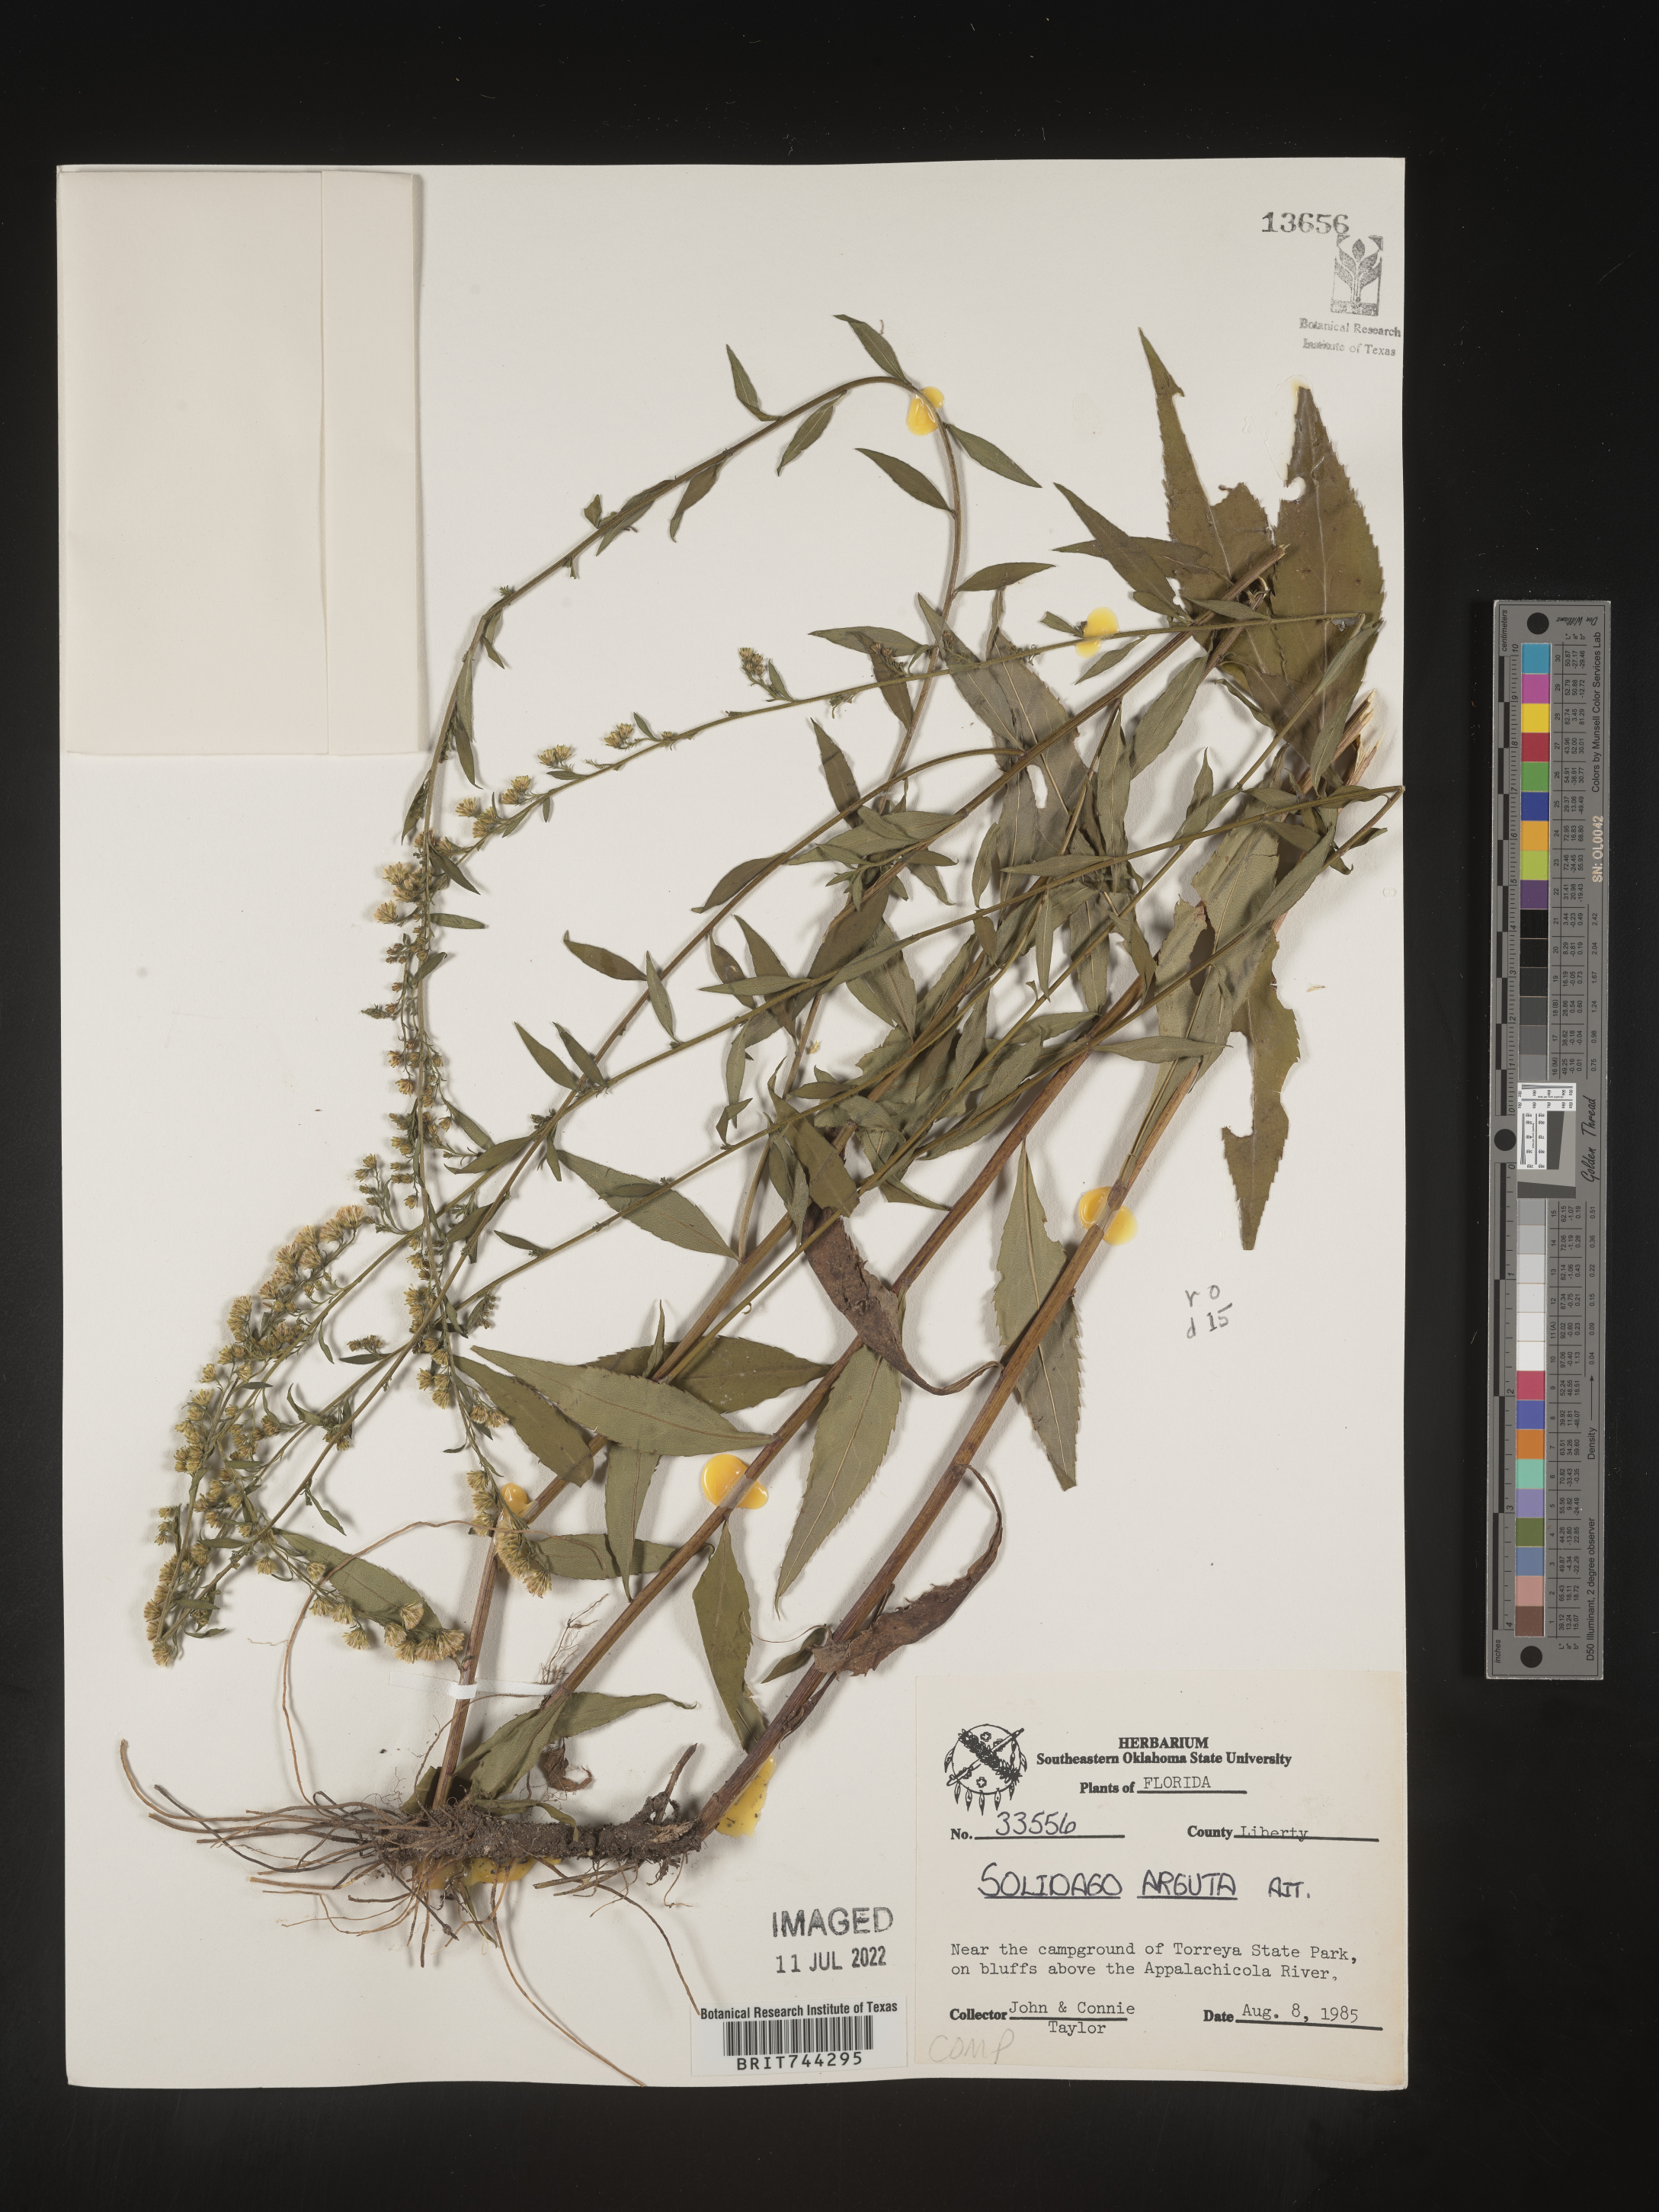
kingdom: Plantae
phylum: Tracheophyta
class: Magnoliopsida
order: Asterales
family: Asteraceae
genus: Solidago
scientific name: Solidago arguta
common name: Atlantic goldenrod
